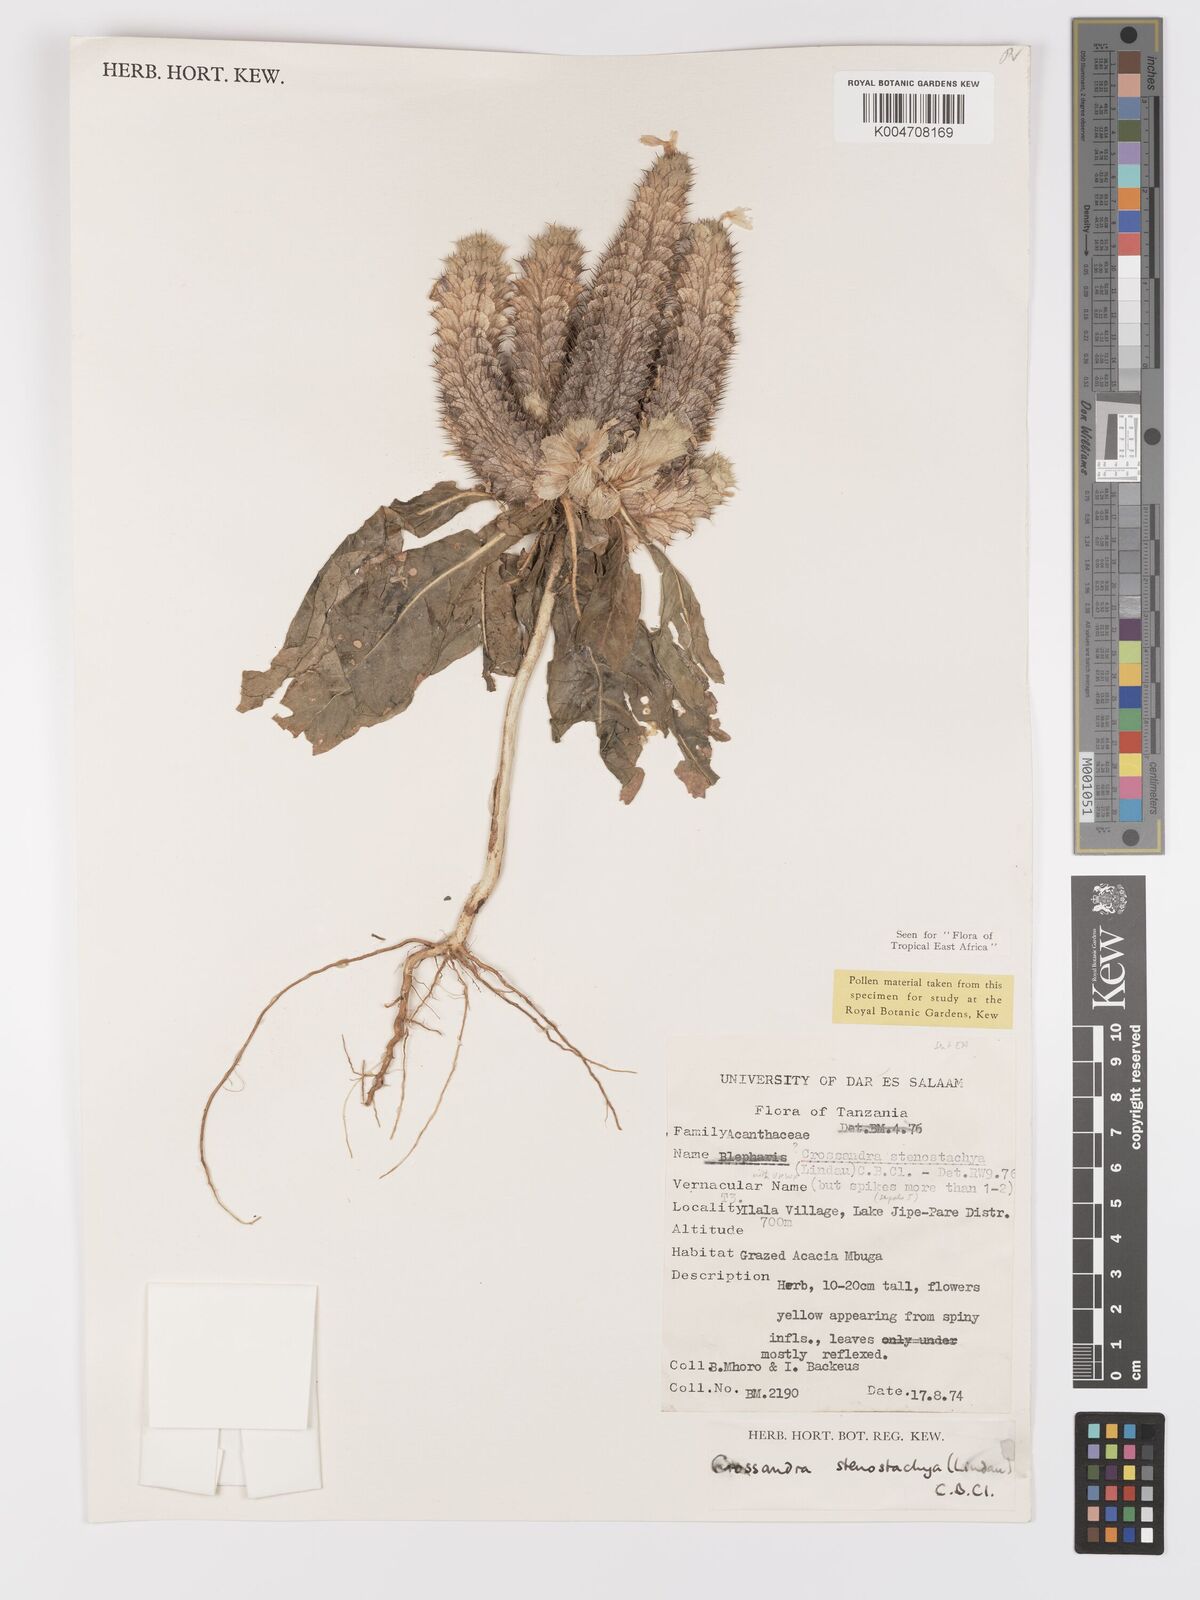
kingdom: Plantae
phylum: Tracheophyta
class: Magnoliopsida
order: Lamiales
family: Acanthaceae
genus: Crossandra
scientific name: Crossandra stenostachya
